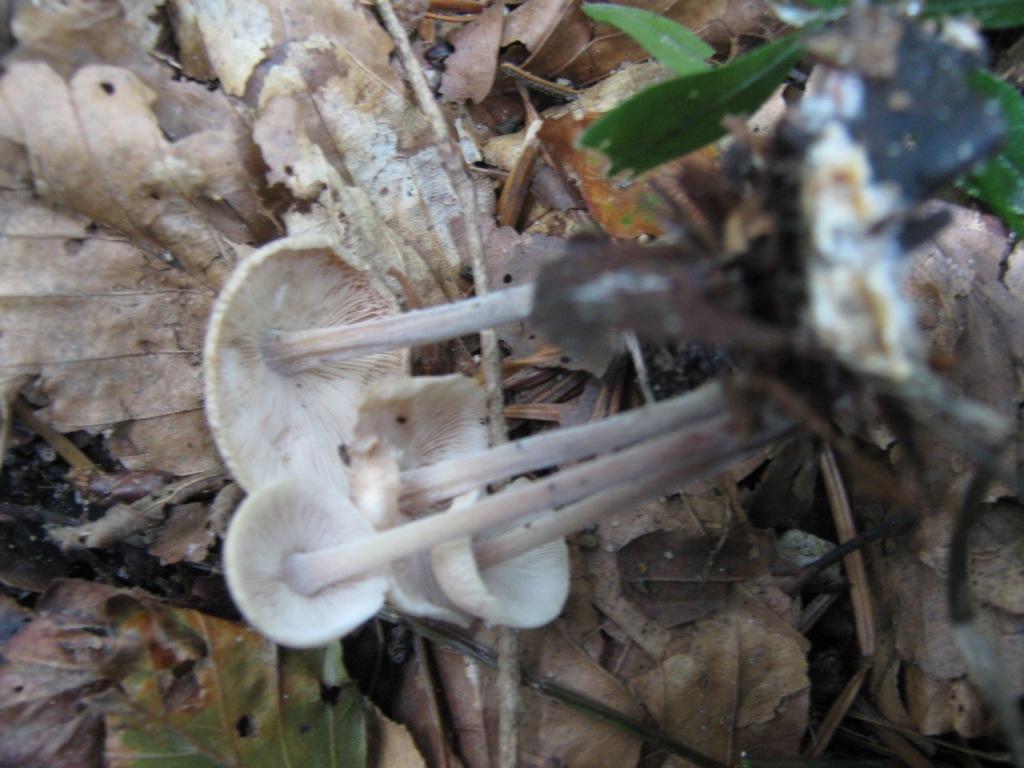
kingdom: Fungi
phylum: Basidiomycota
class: Agaricomycetes
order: Agaricales
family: Omphalotaceae
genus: Collybiopsis
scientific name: Collybiopsis confluens
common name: knippe-fladhat
